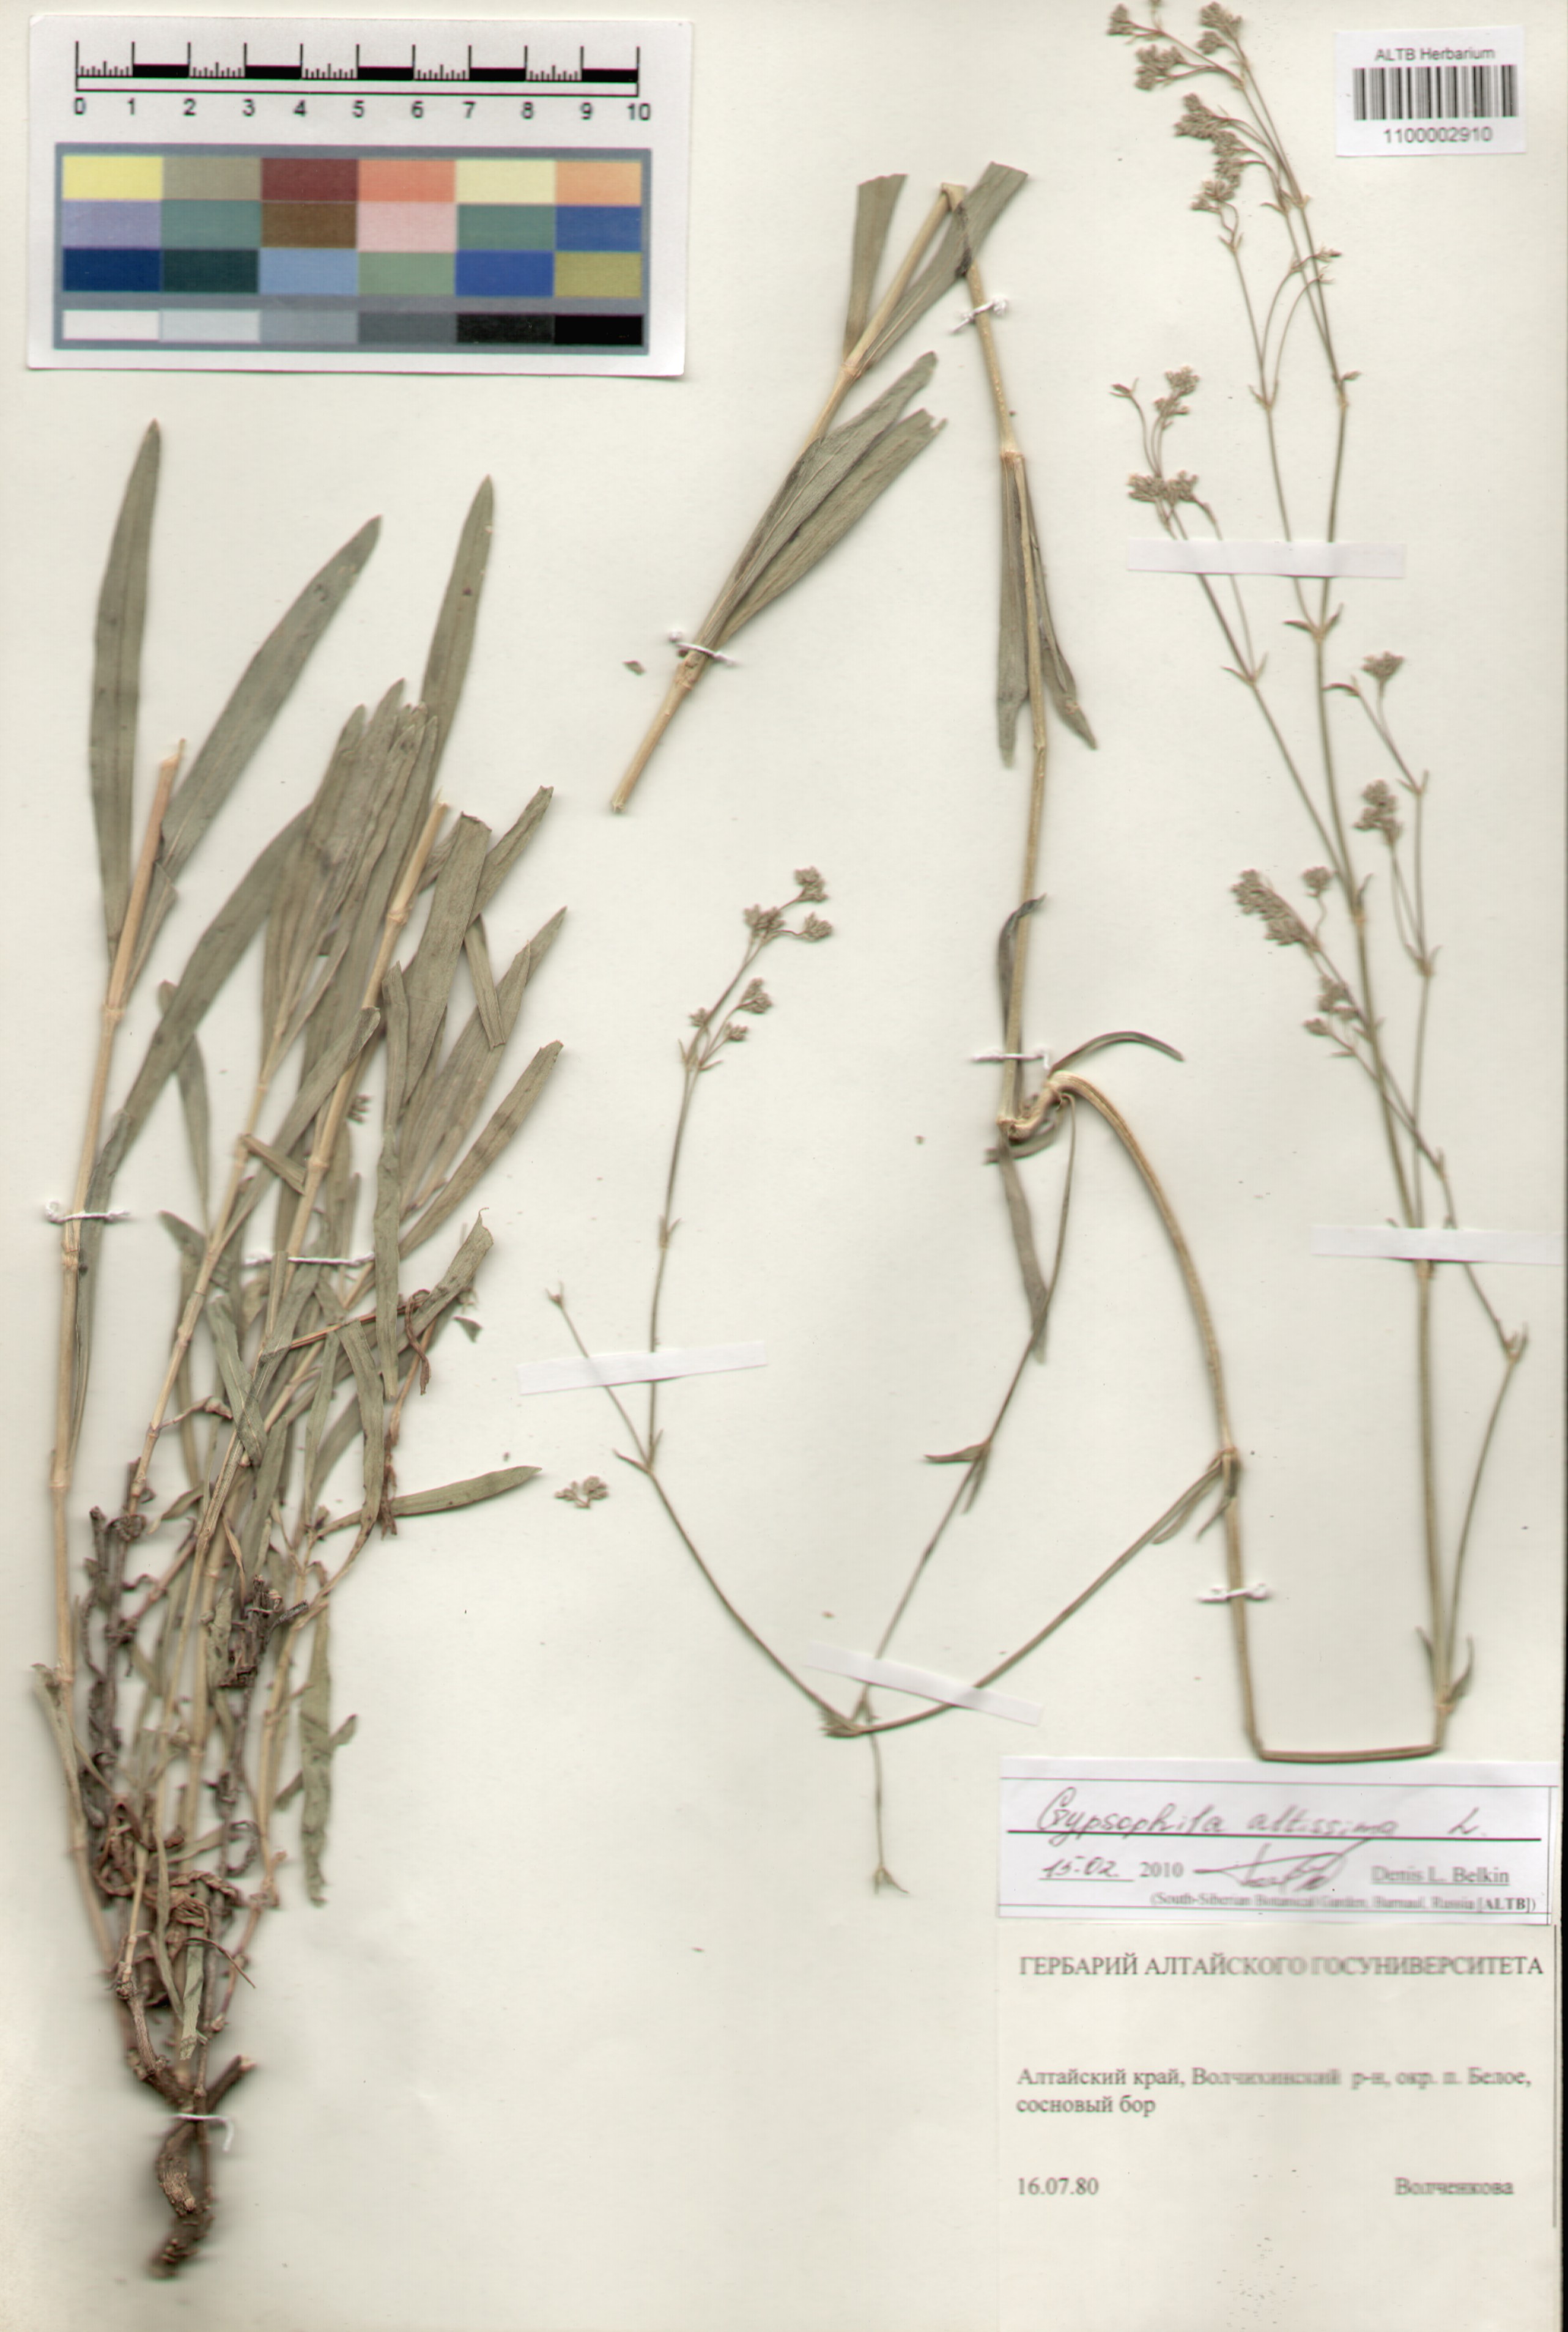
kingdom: Plantae
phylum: Tracheophyta
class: Magnoliopsida
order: Caryophyllales
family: Caryophyllaceae
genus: Gypsophila
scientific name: Gypsophila altissima
